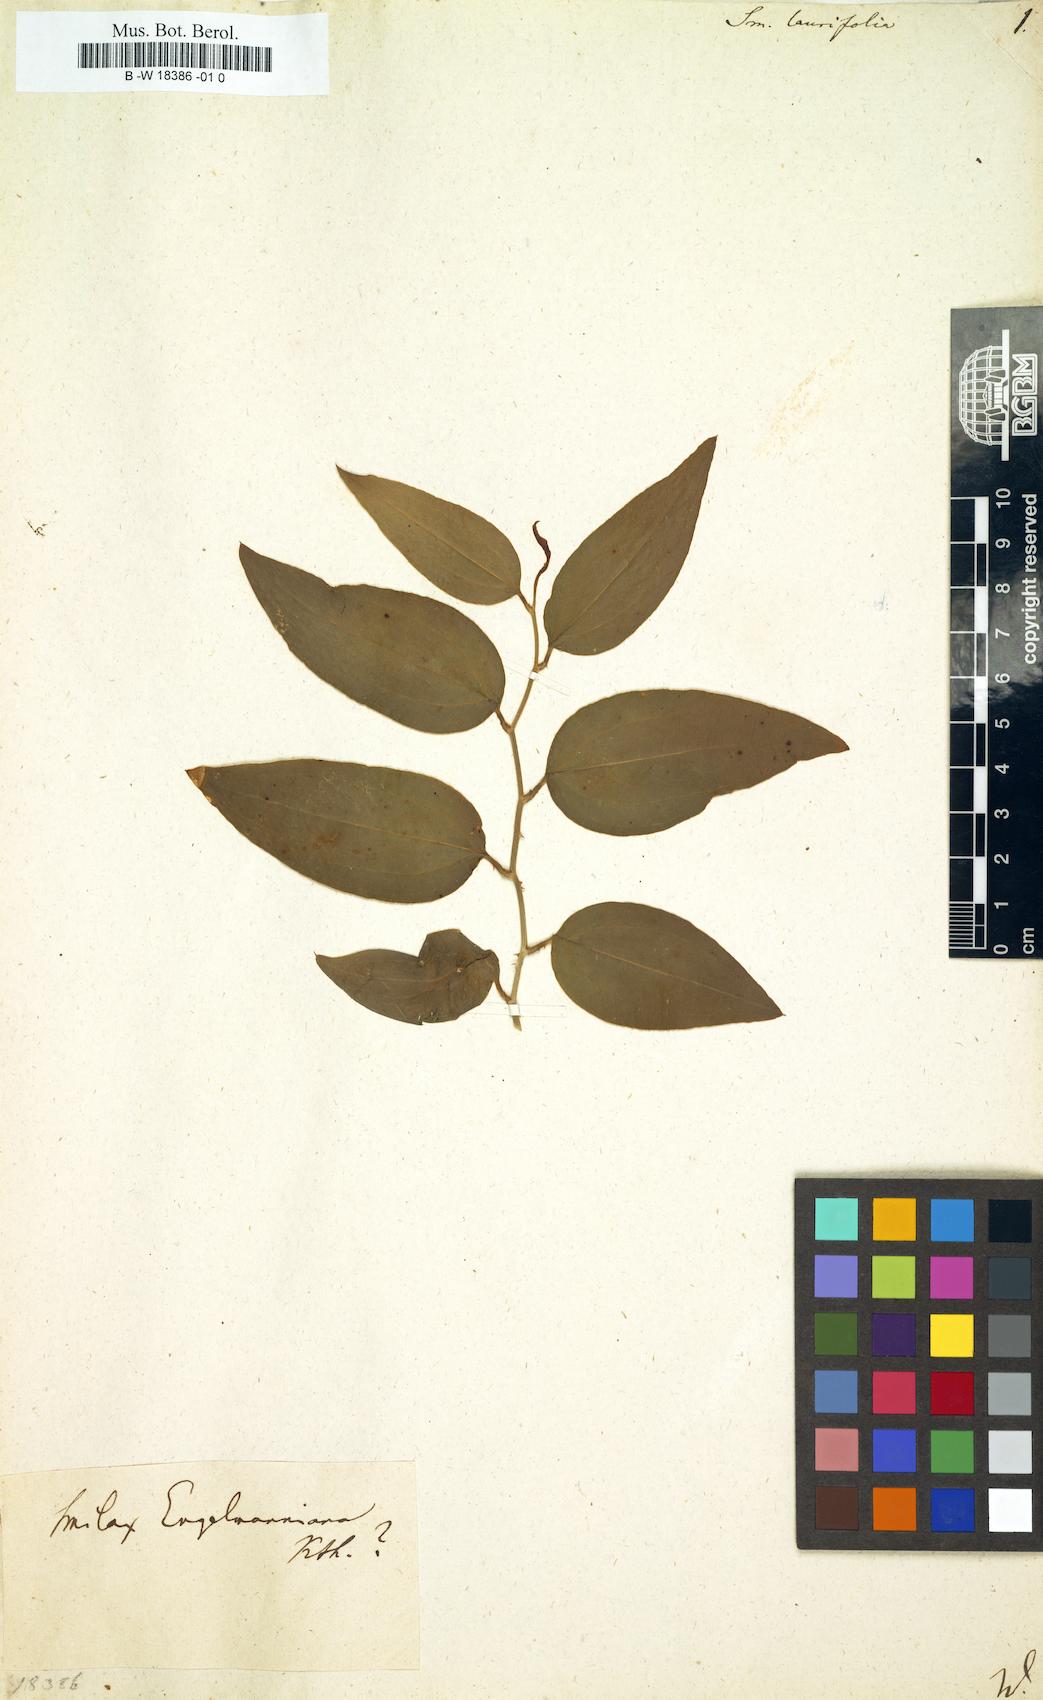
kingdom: Plantae
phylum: Tracheophyta
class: Liliopsida
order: Liliales
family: Smilacaceae
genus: Smilax
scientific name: Smilax laurifolia
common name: Bamboovine
